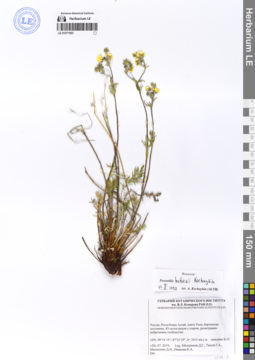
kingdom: Plantae
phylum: Tracheophyta
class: Magnoliopsida
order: Rosales
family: Rosaceae
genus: Potentilla
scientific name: Potentilla habievii
